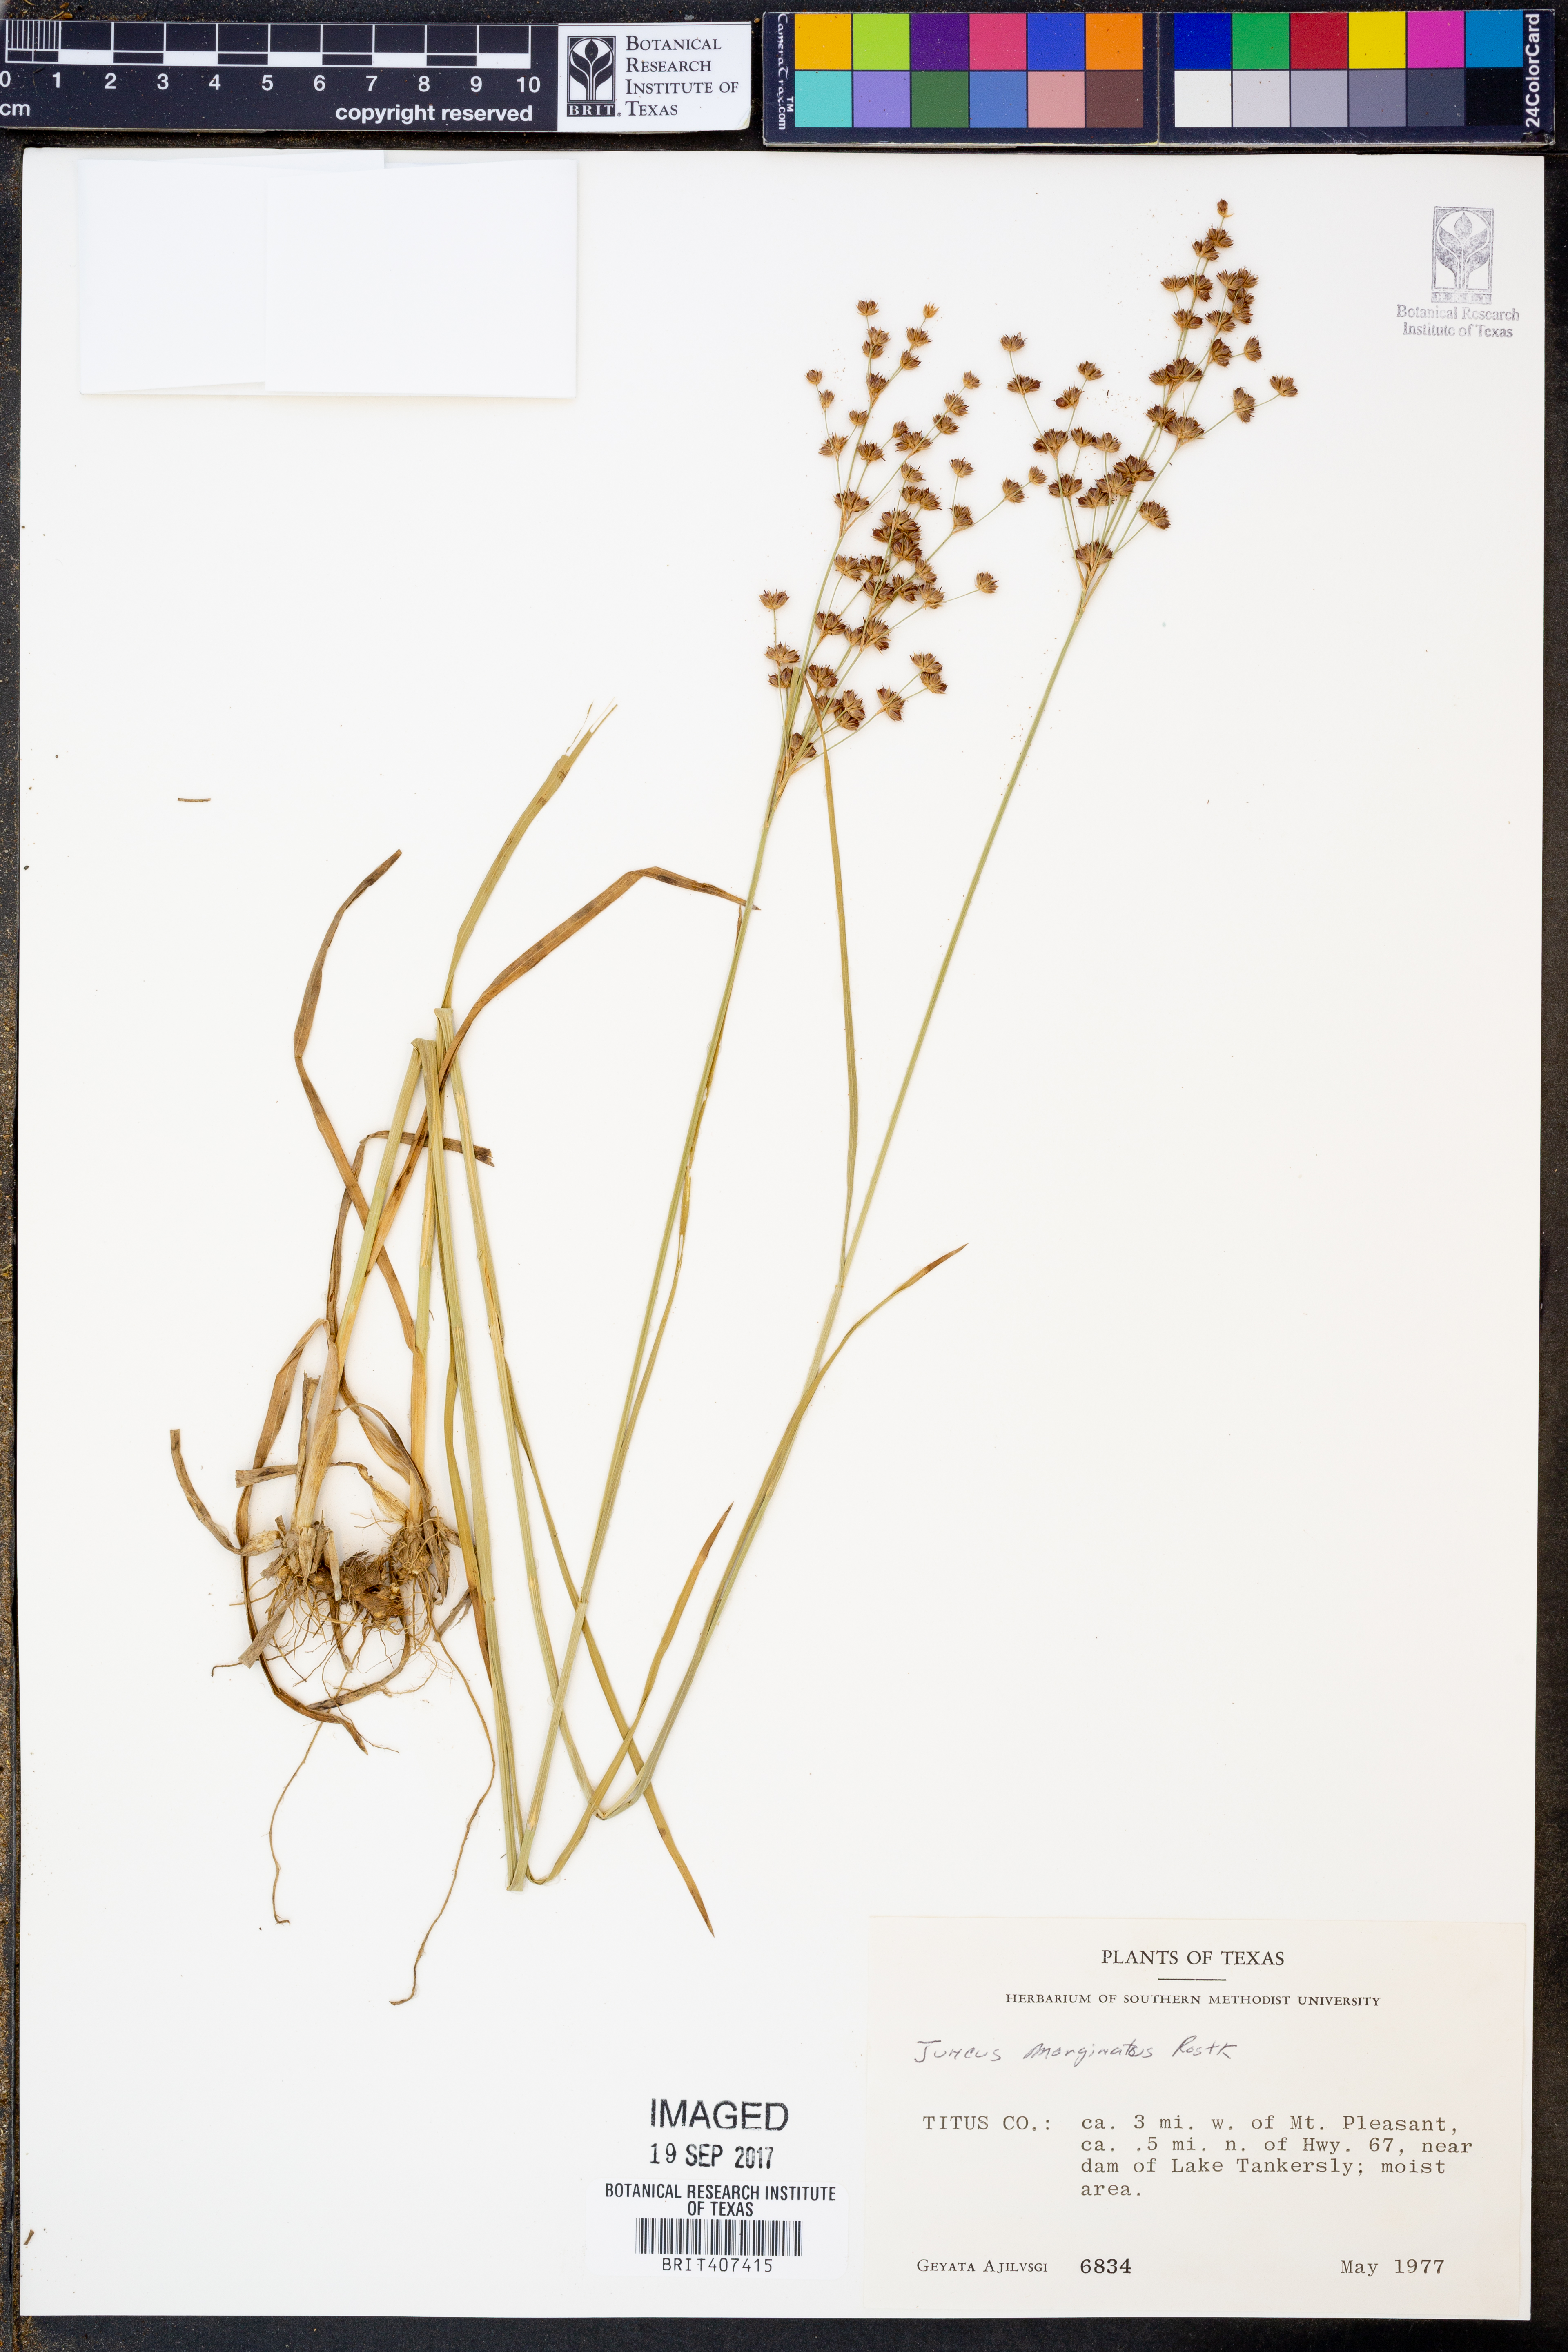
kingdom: Plantae
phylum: Tracheophyta
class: Liliopsida
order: Poales
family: Juncaceae
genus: Juncus
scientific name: Juncus marginatus
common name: Grass-leaf rush
